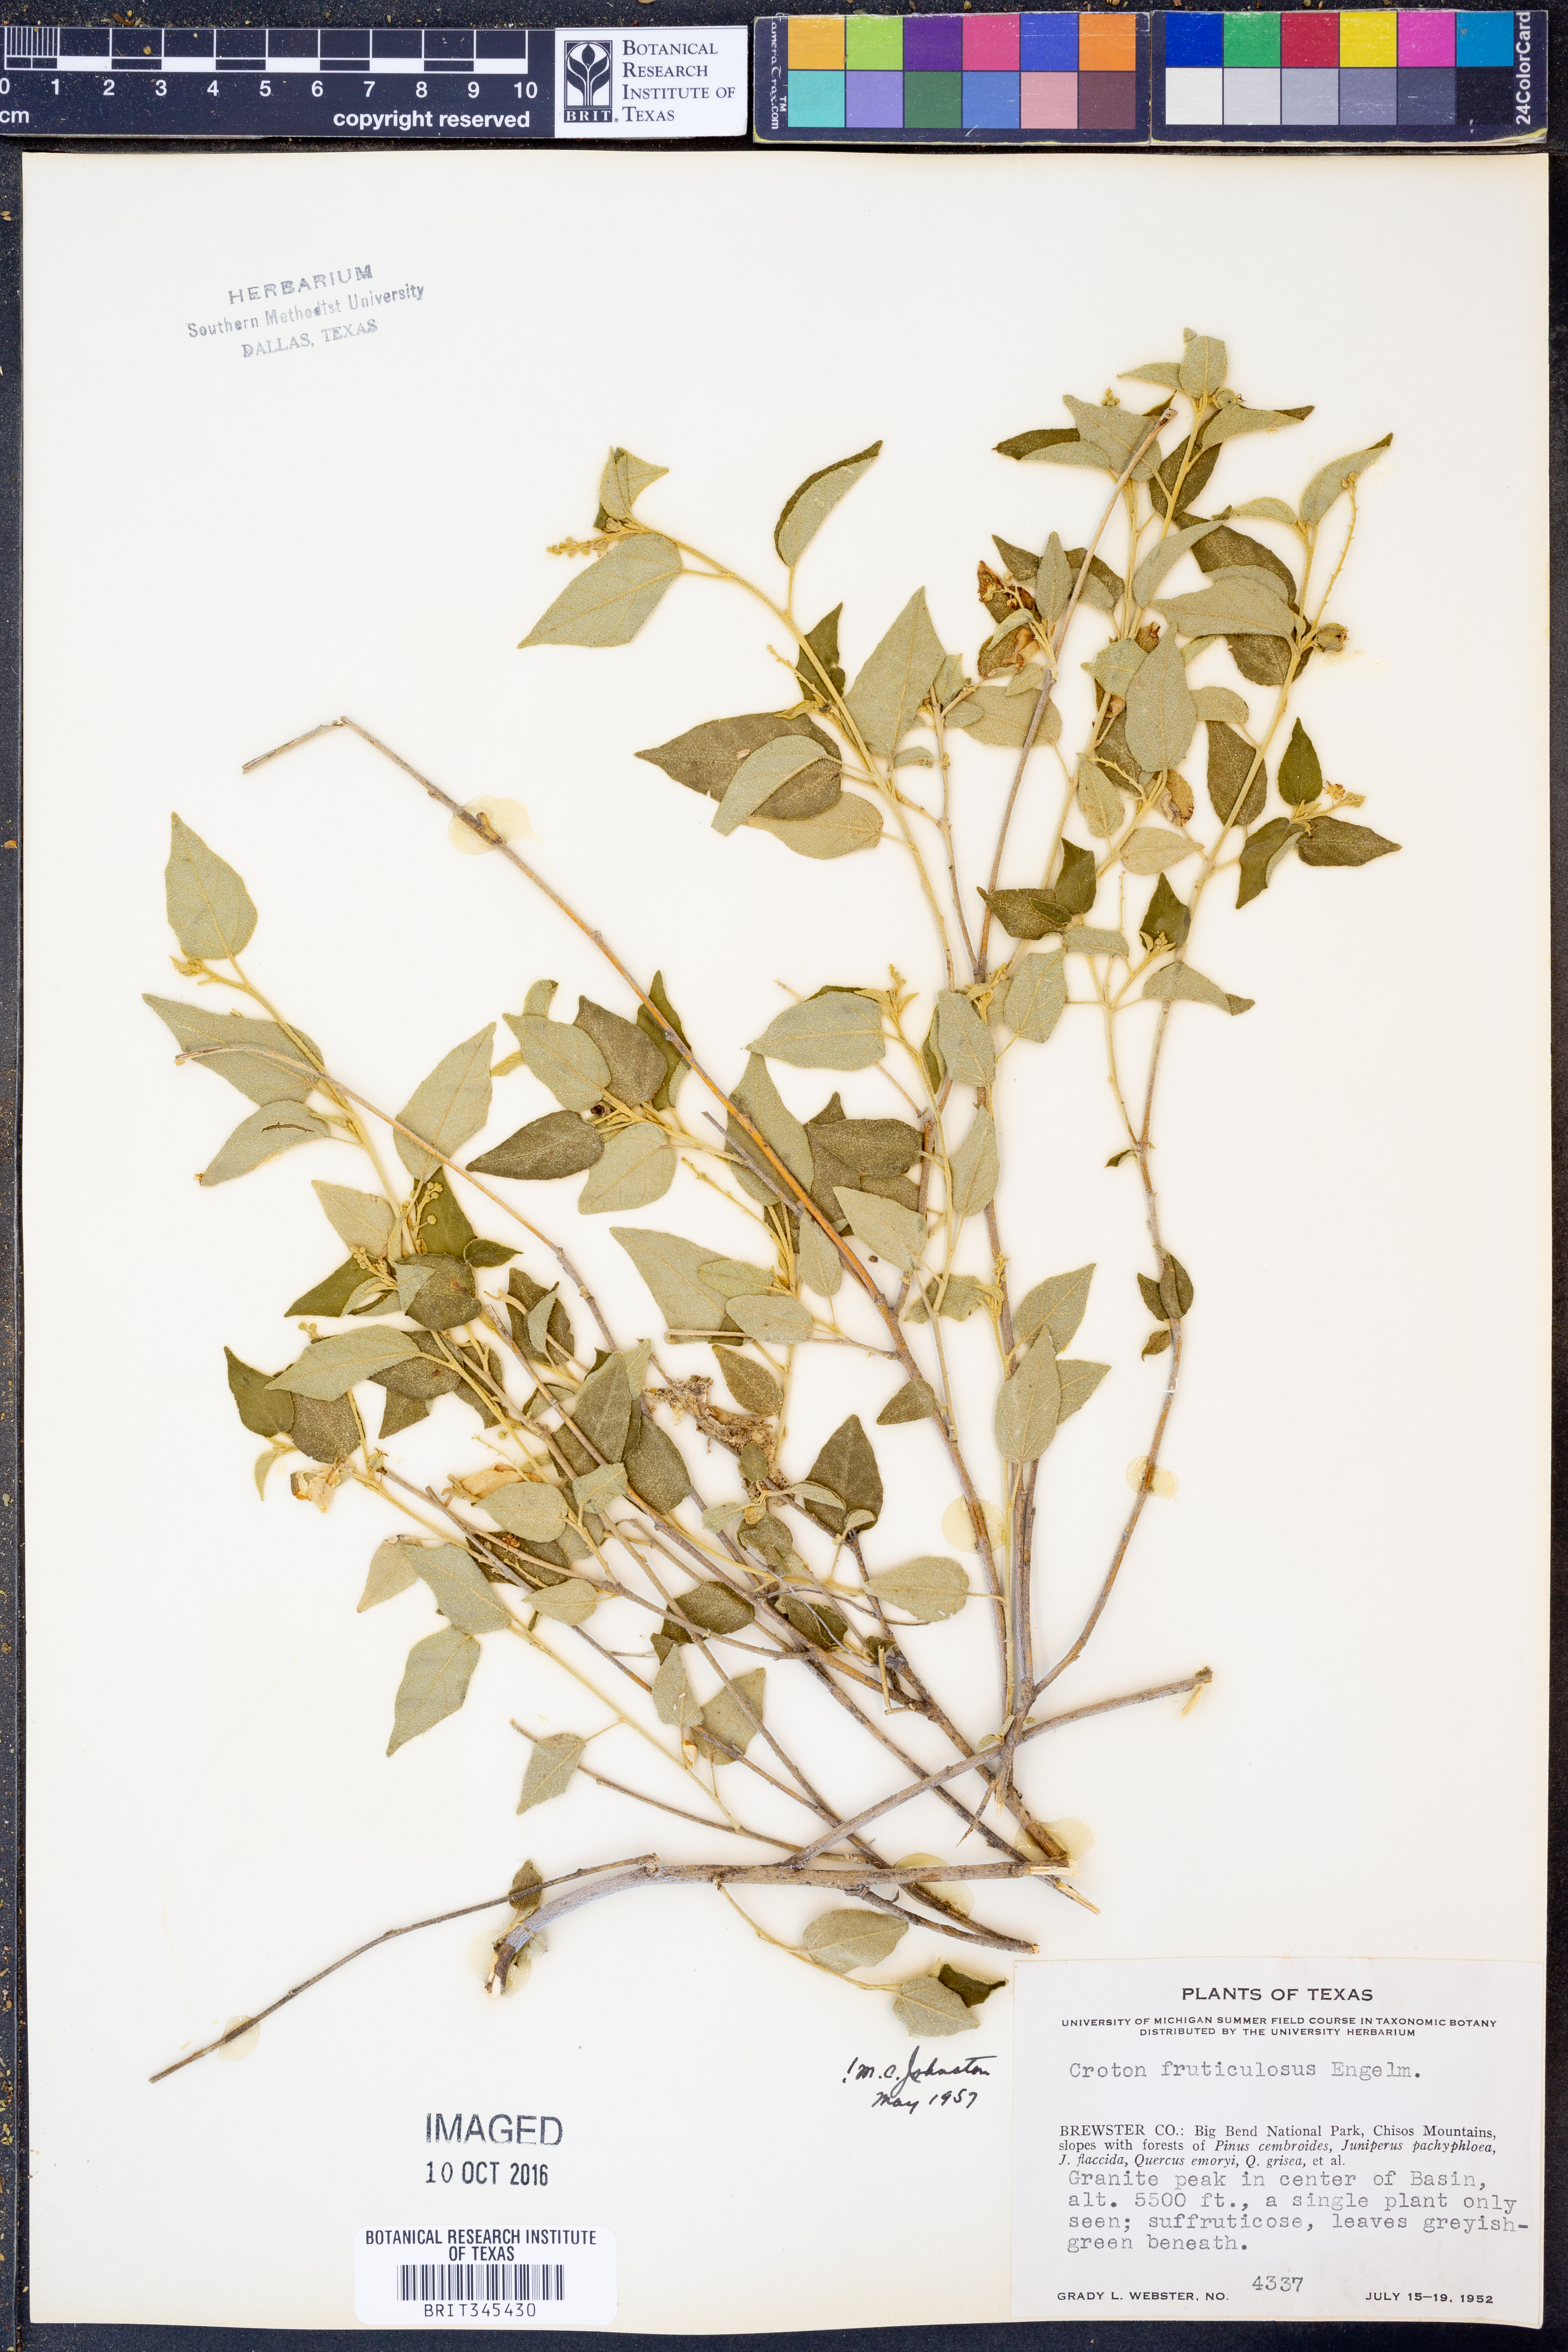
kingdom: Plantae
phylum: Tracheophyta
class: Magnoliopsida
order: Malpighiales
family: Euphorbiaceae
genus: Croton
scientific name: Croton fruticulosus
